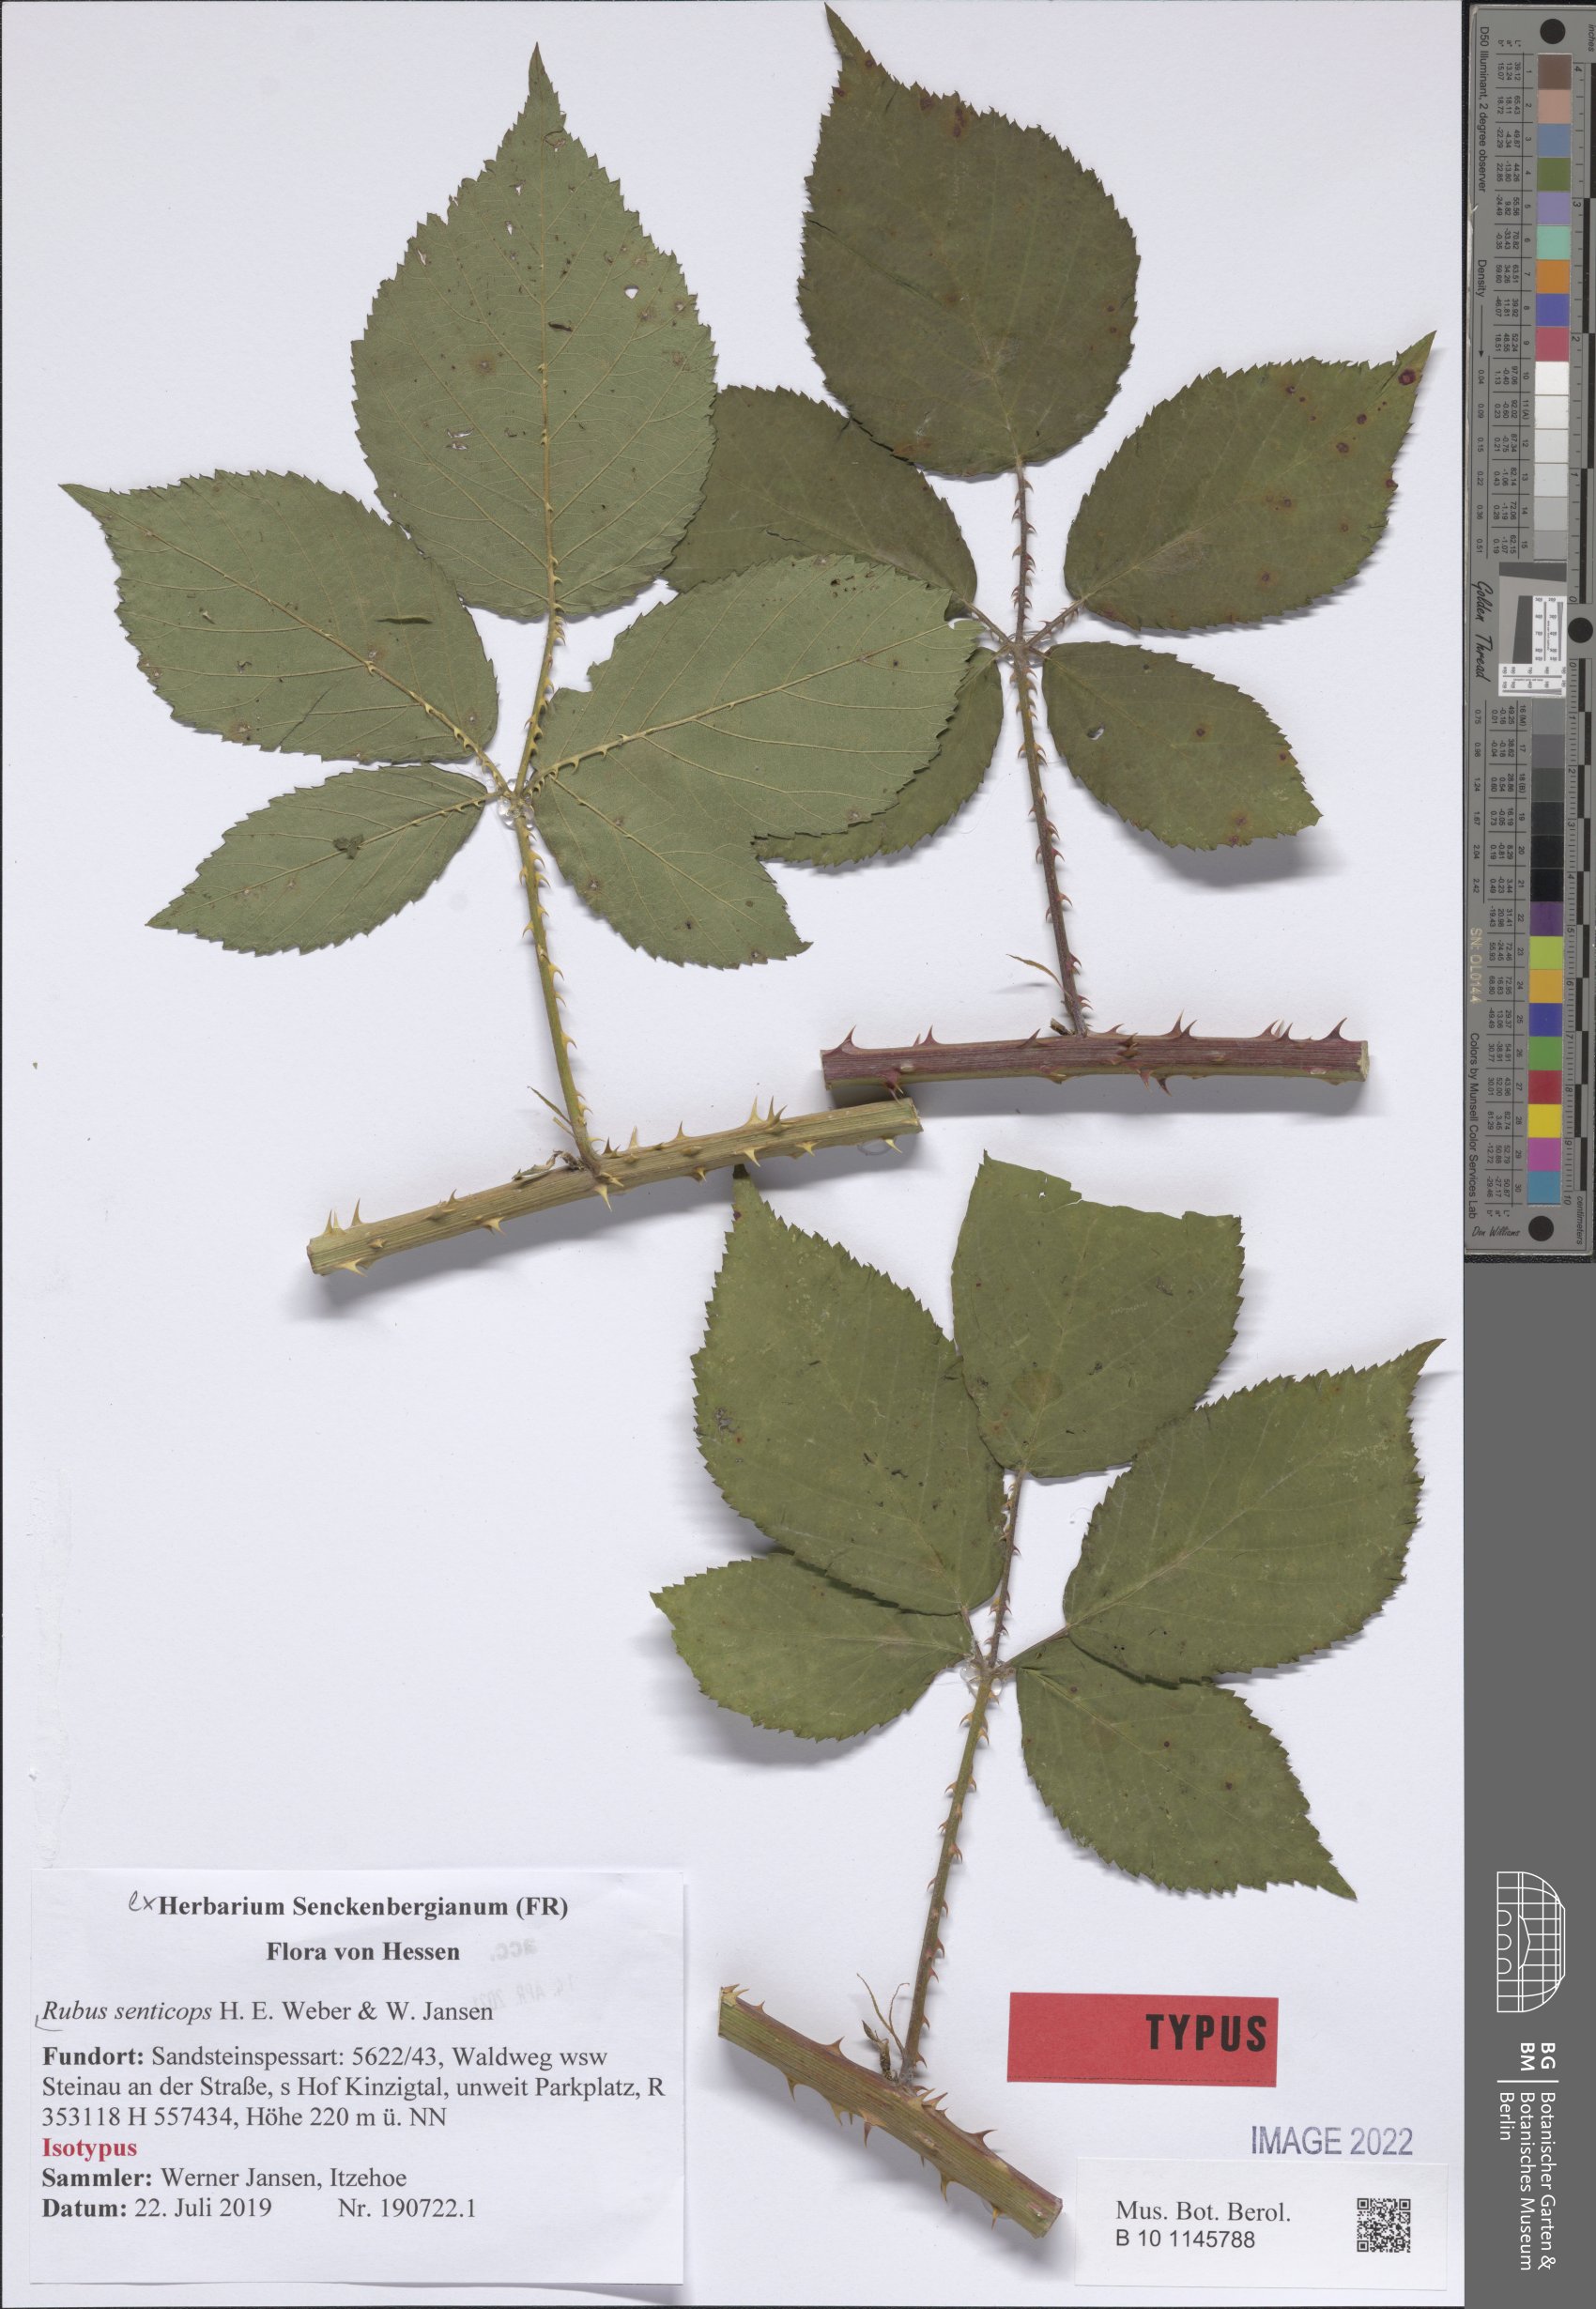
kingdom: Plantae
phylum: Tracheophyta
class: Magnoliopsida
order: Rosales
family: Rosaceae
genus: Rubus
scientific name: Rubus senticops
